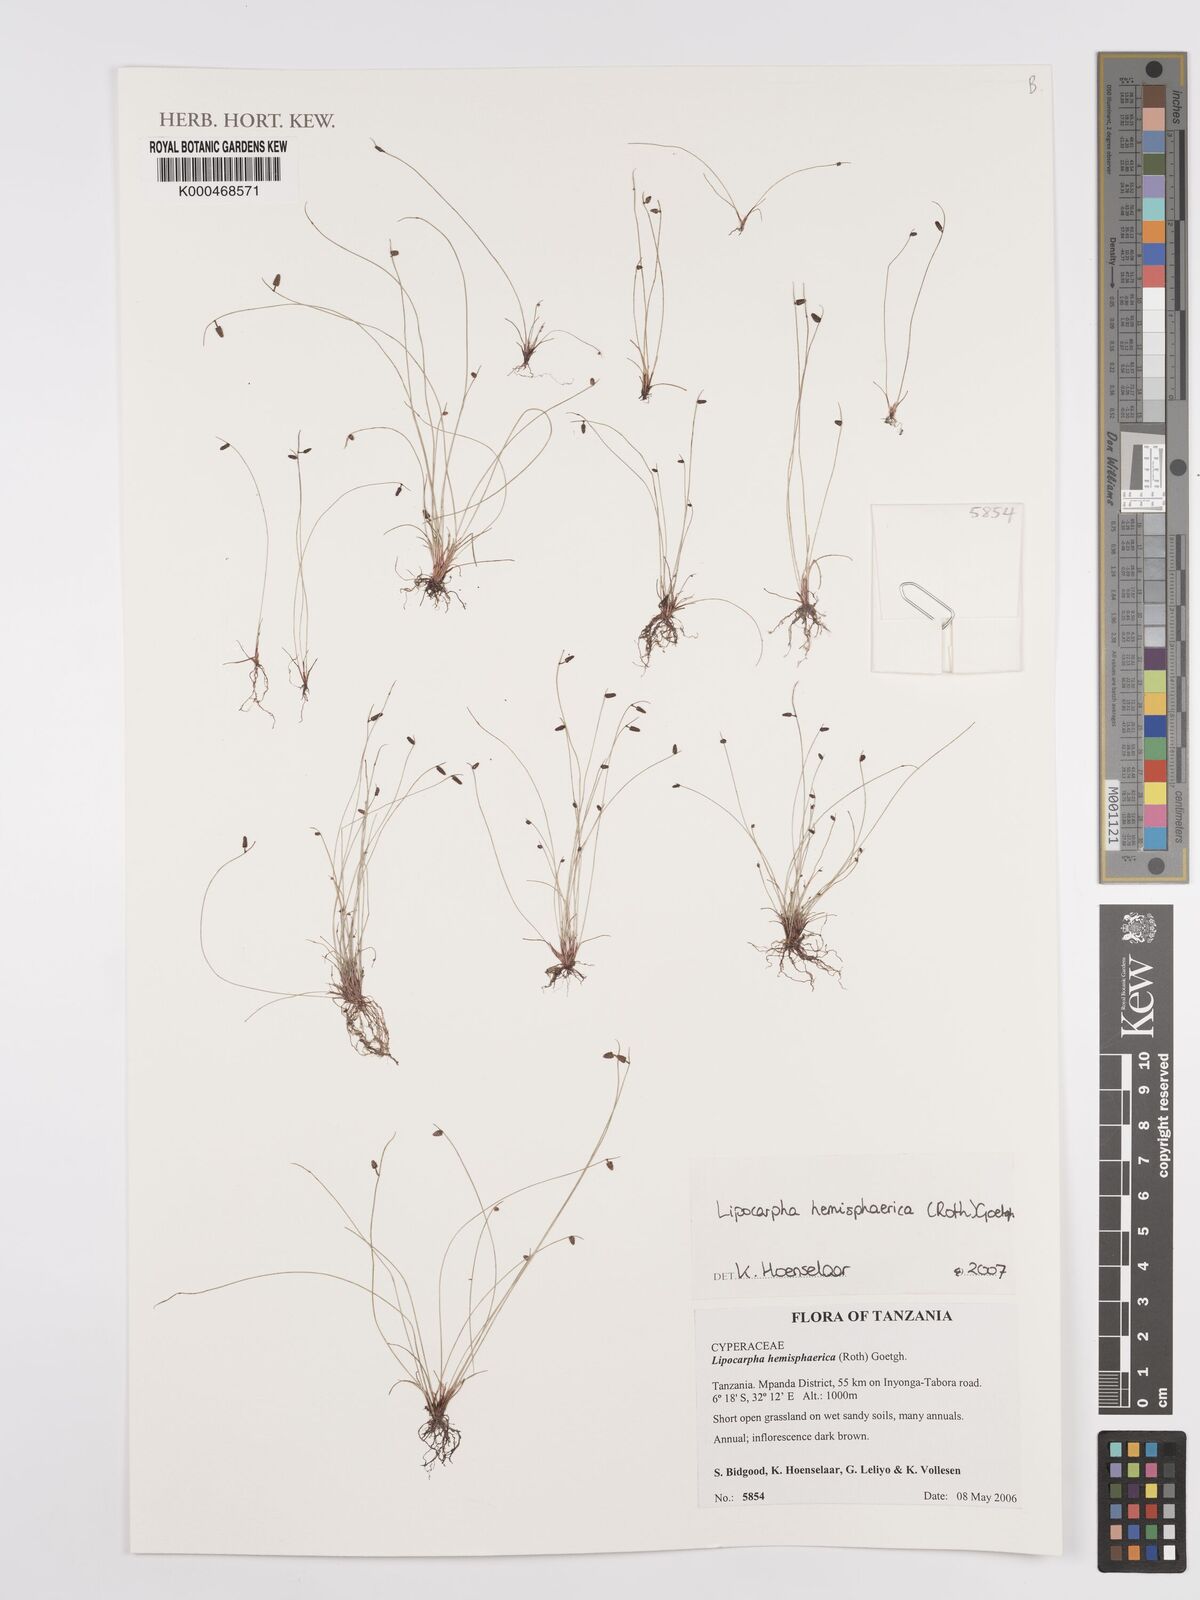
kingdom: Plantae
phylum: Tracheophyta
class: Liliopsida
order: Poales
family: Cyperaceae
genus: Cyperus
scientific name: Cyperus isolepis
